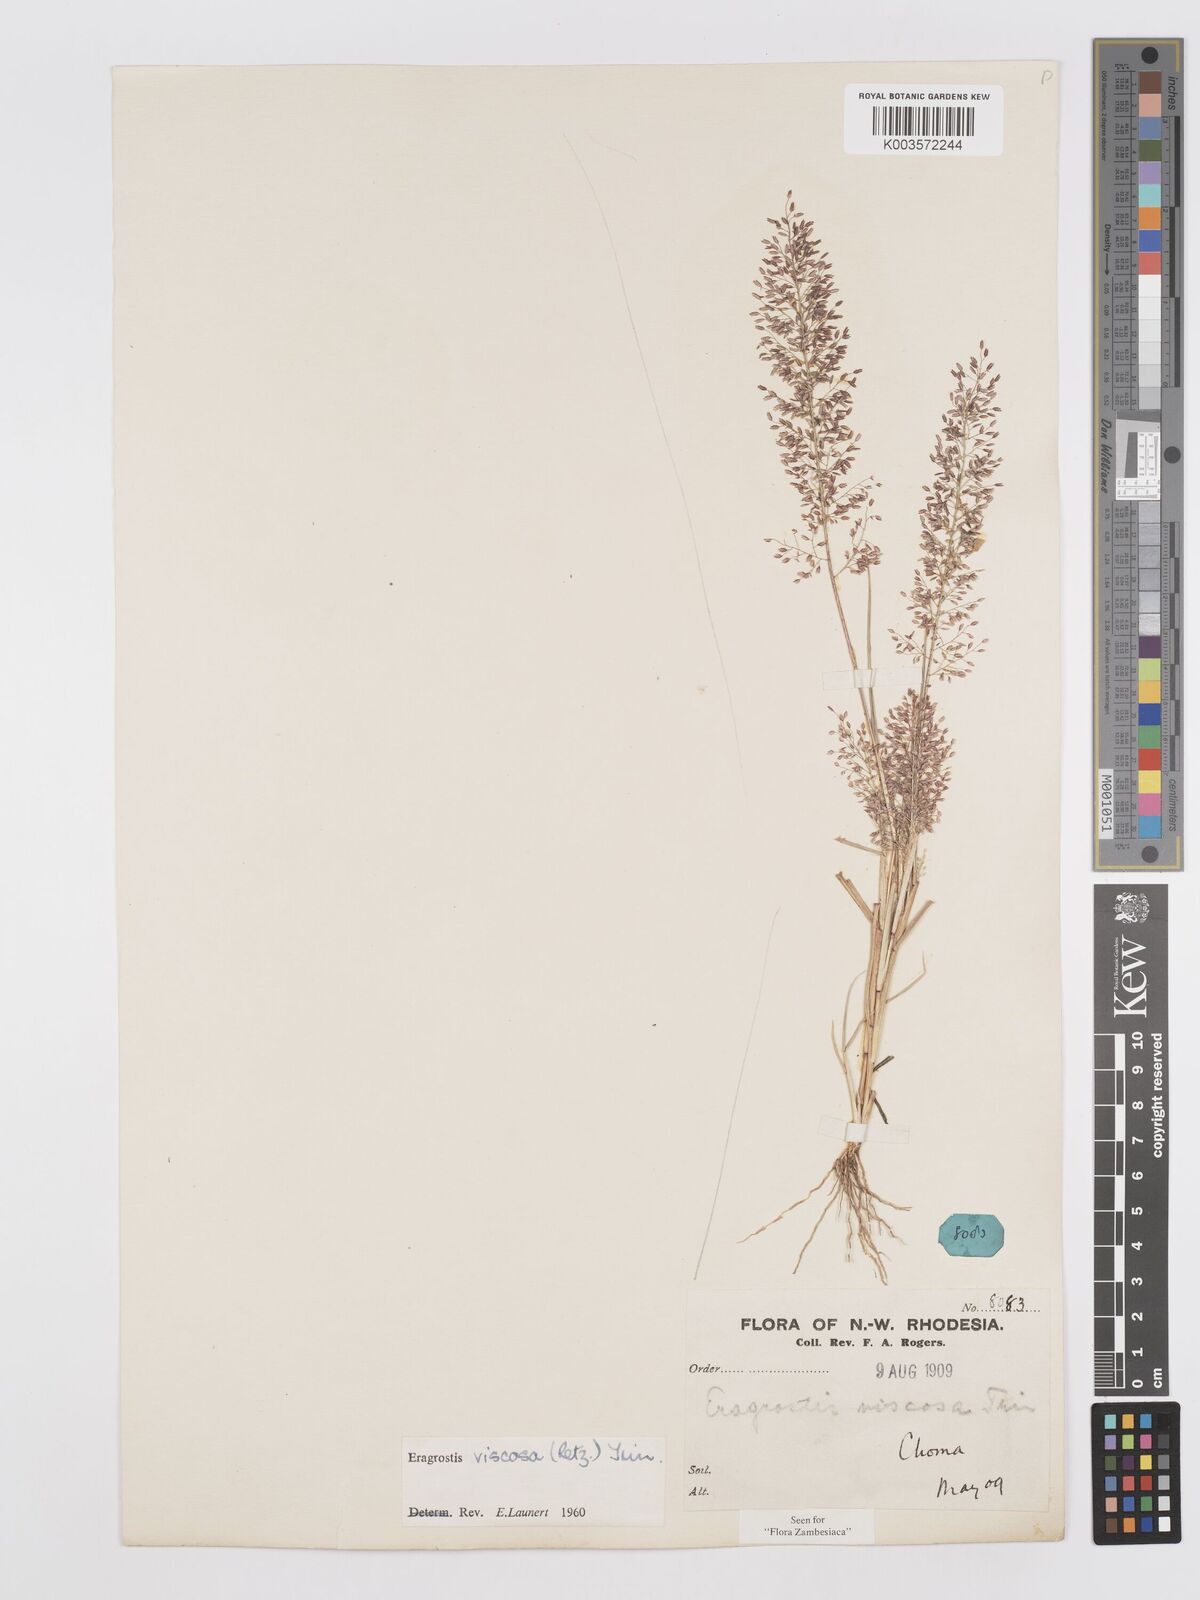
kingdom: Plantae
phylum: Tracheophyta
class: Liliopsida
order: Poales
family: Poaceae
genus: Eragrostis
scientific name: Eragrostis
